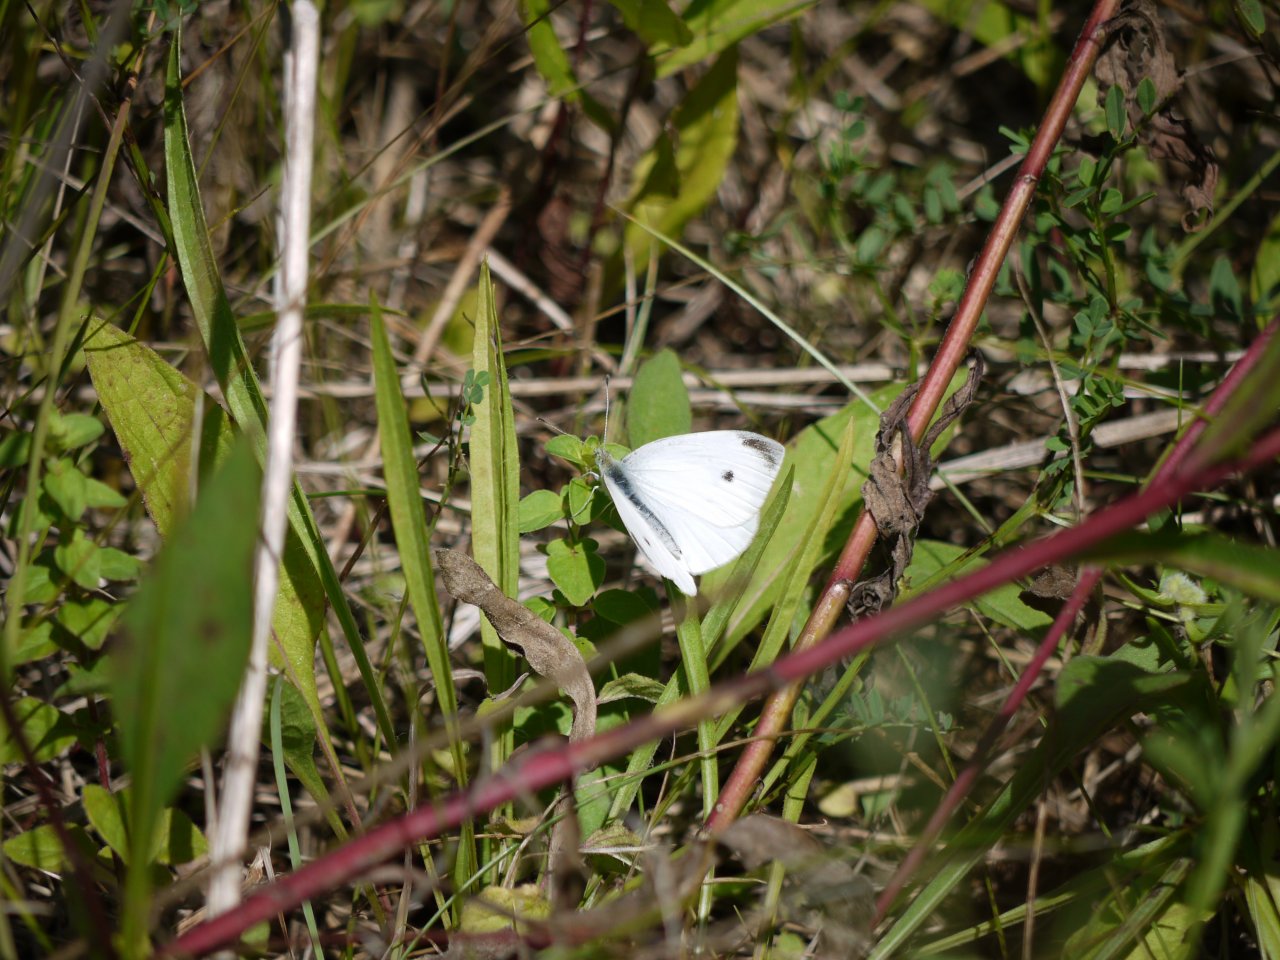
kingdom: Animalia
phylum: Arthropoda
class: Insecta
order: Lepidoptera
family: Pieridae
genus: Pieris
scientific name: Pieris rapae
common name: Cabbage White
